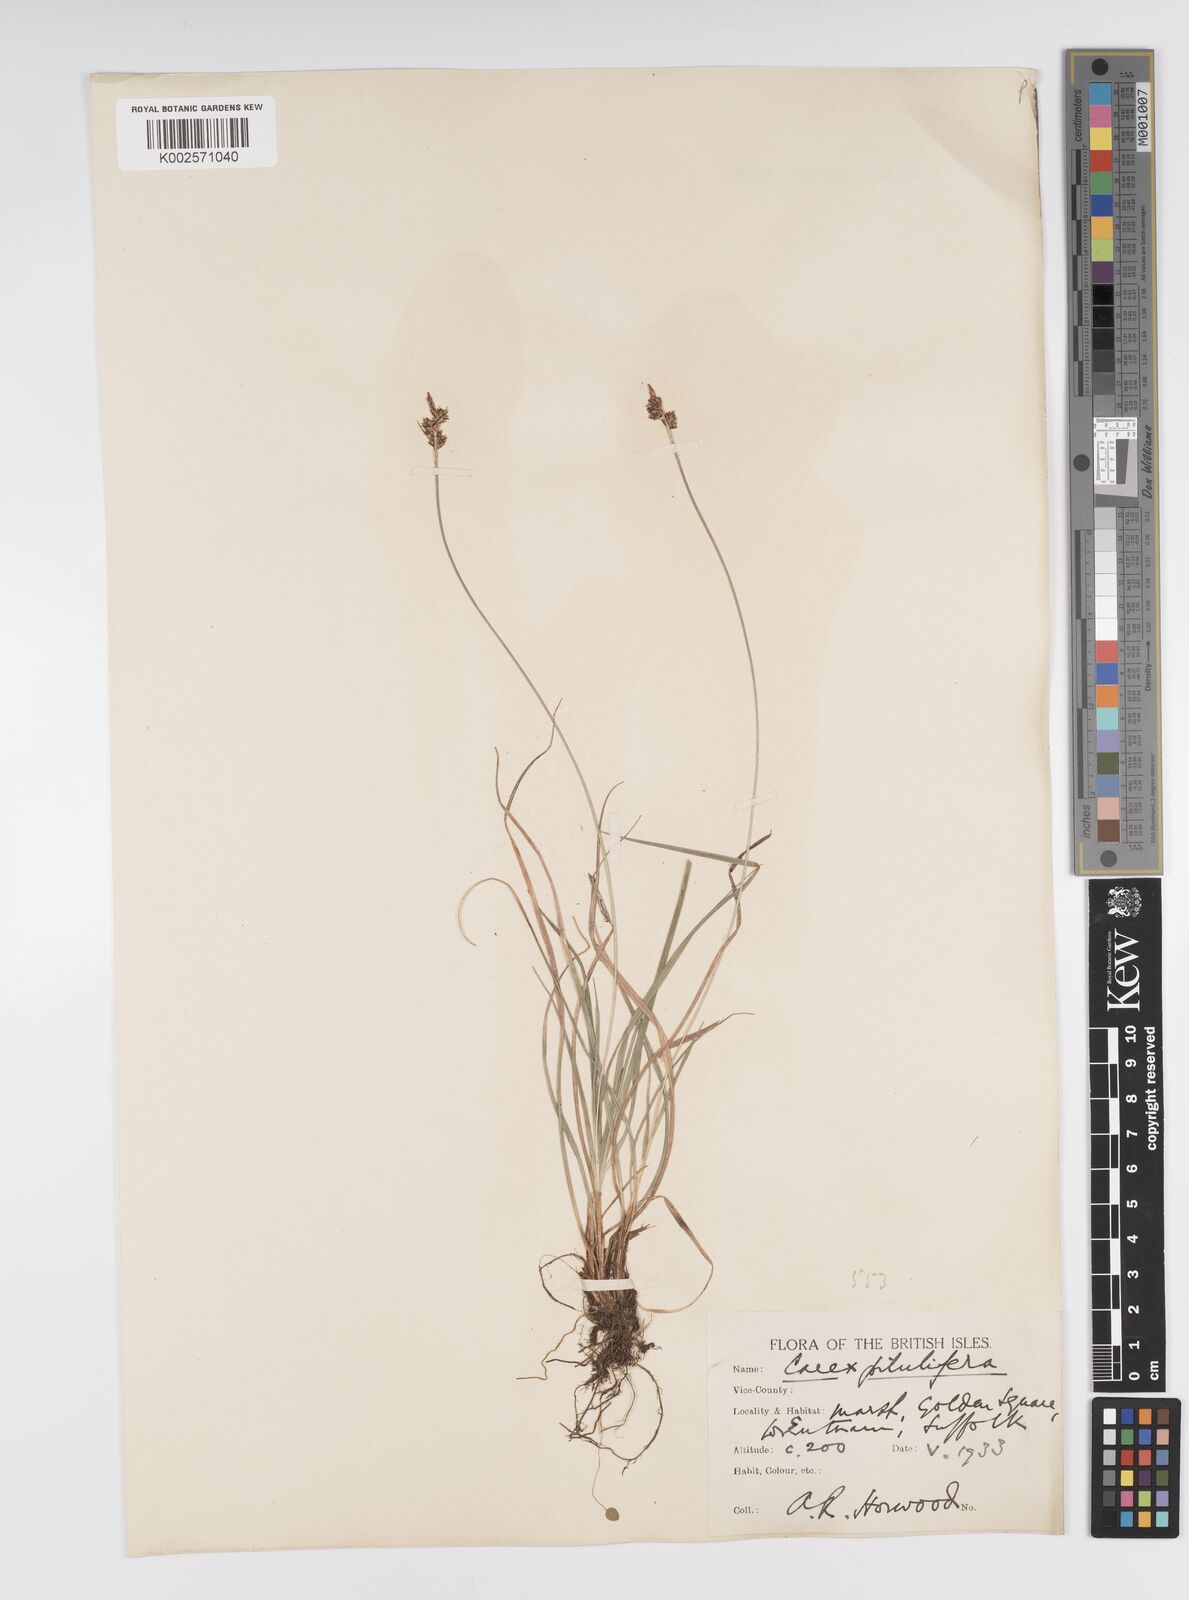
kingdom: Plantae
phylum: Tracheophyta
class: Liliopsida
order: Poales
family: Cyperaceae
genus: Carex
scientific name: Carex pilulifera
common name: Pill sedge
